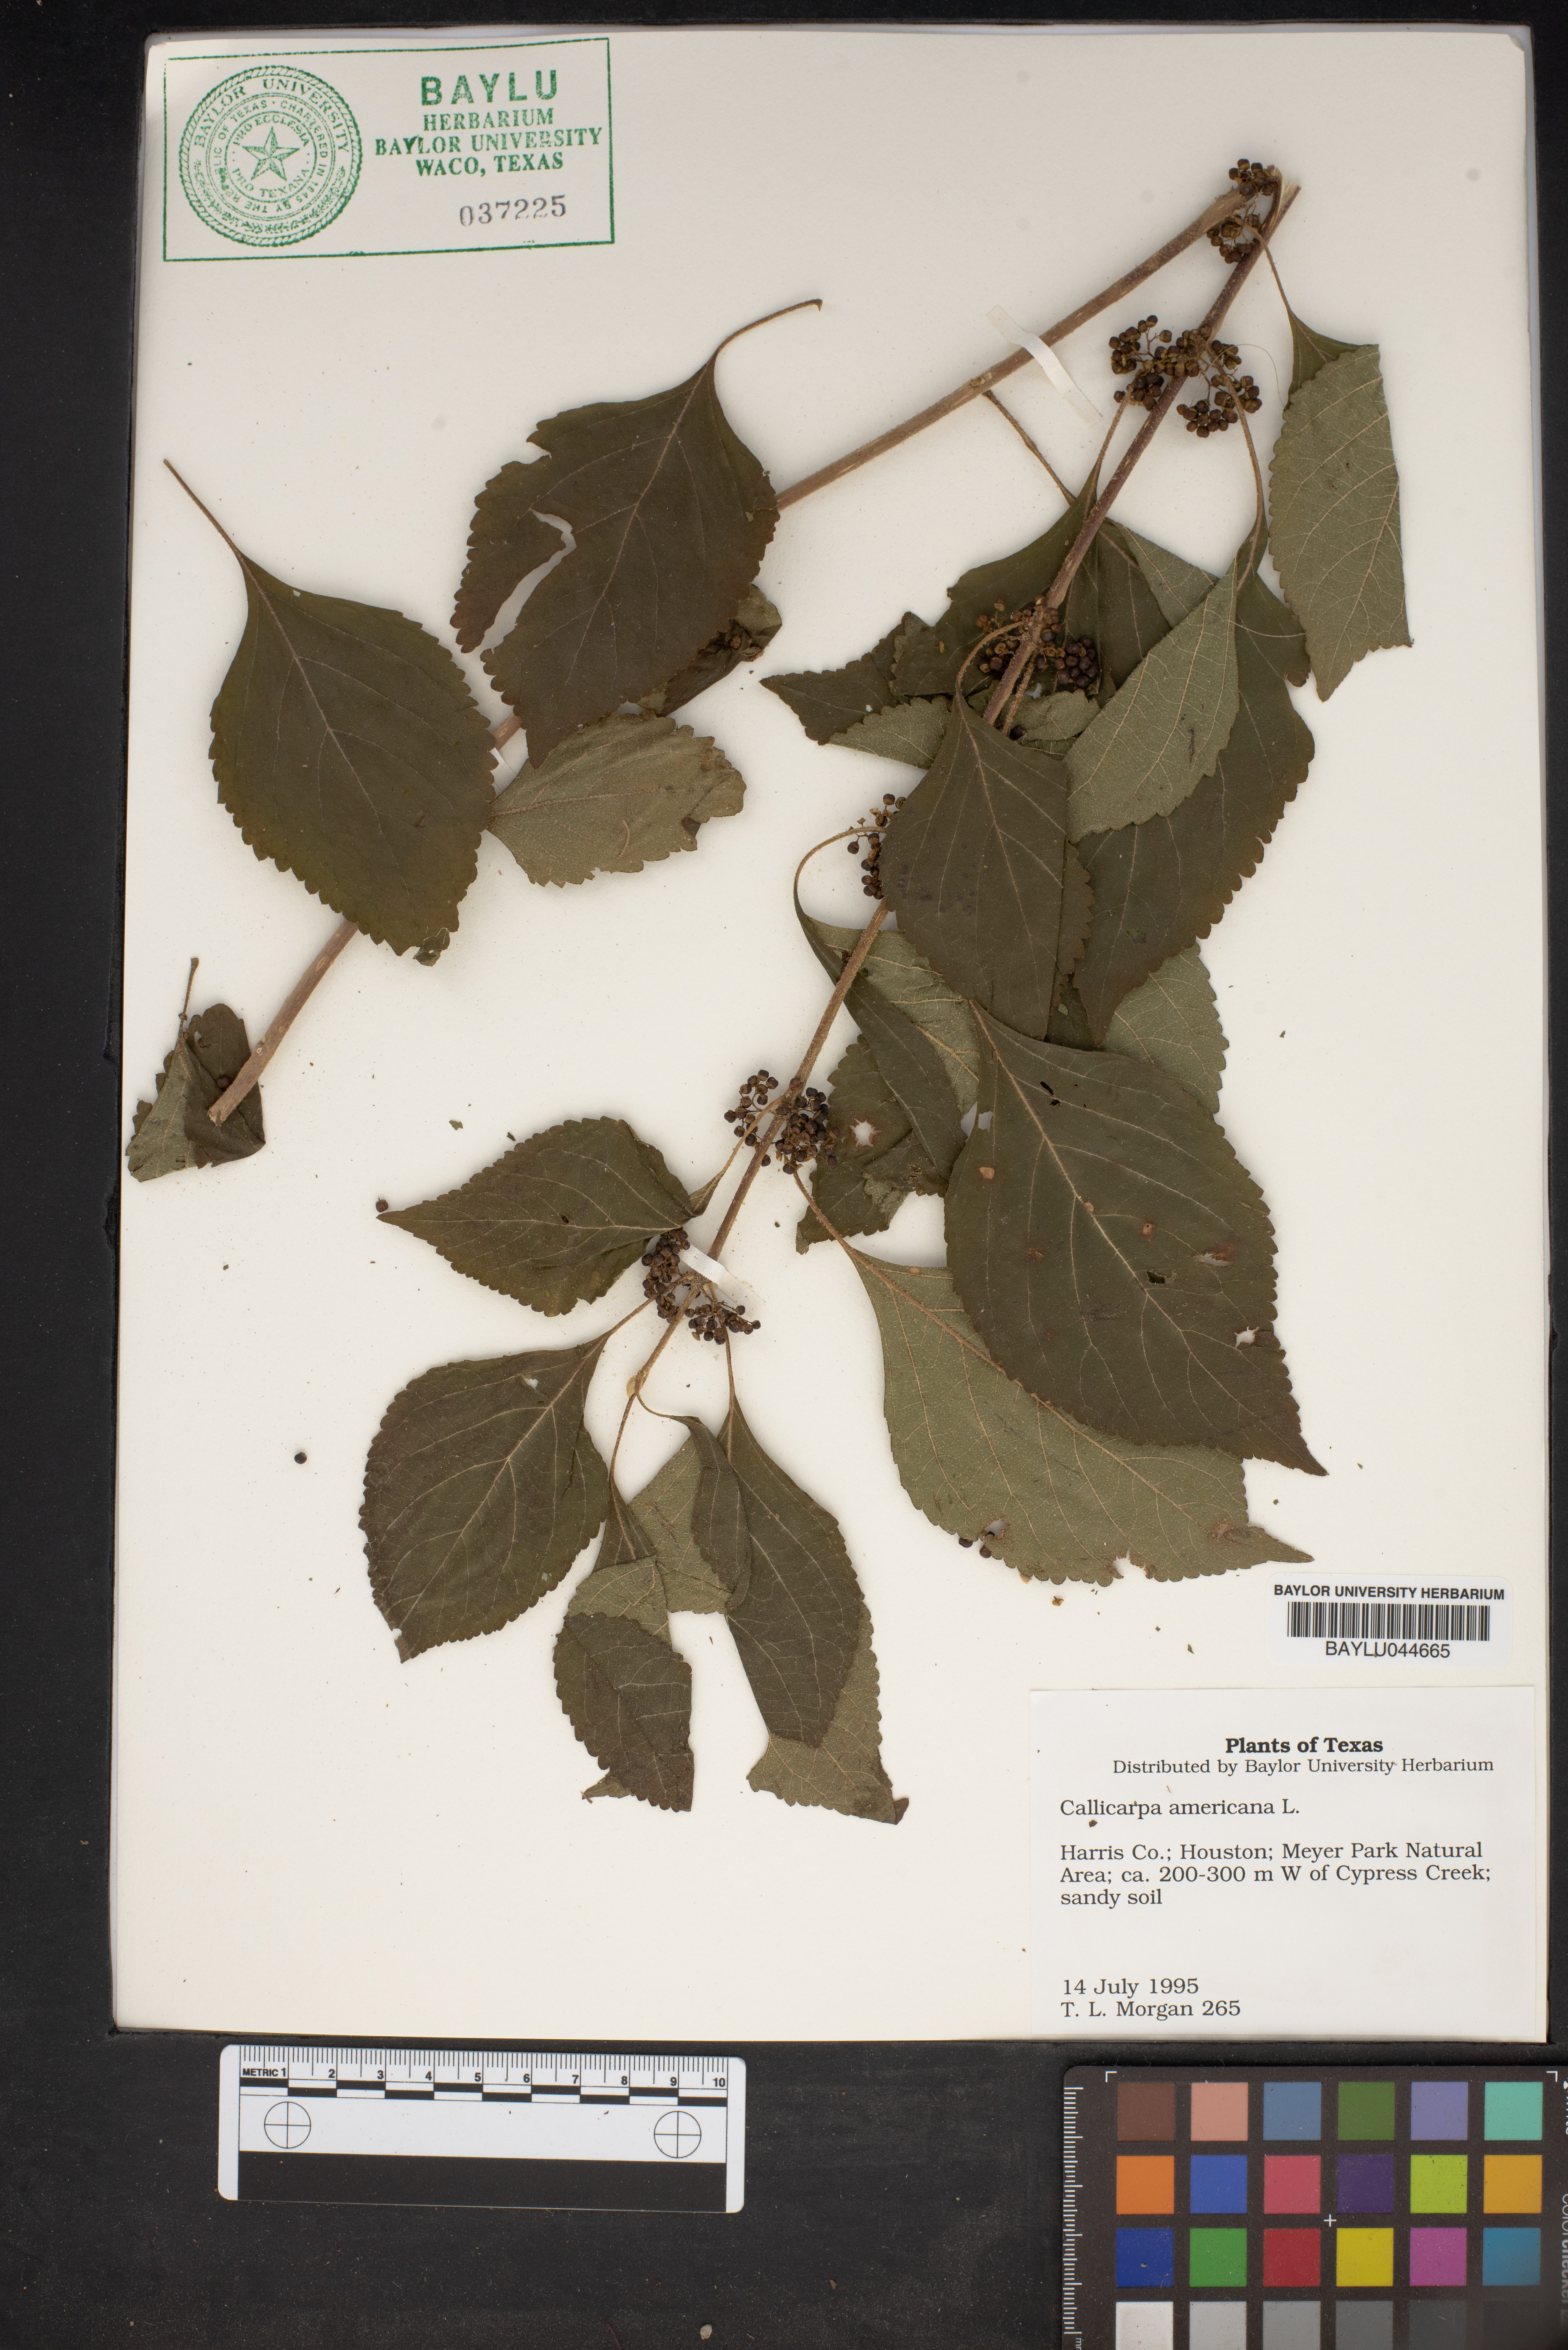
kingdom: Plantae
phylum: Tracheophyta
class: Magnoliopsida
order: Lamiales
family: Lamiaceae
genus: Callicarpa
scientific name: Callicarpa americana
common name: American beautyberry
